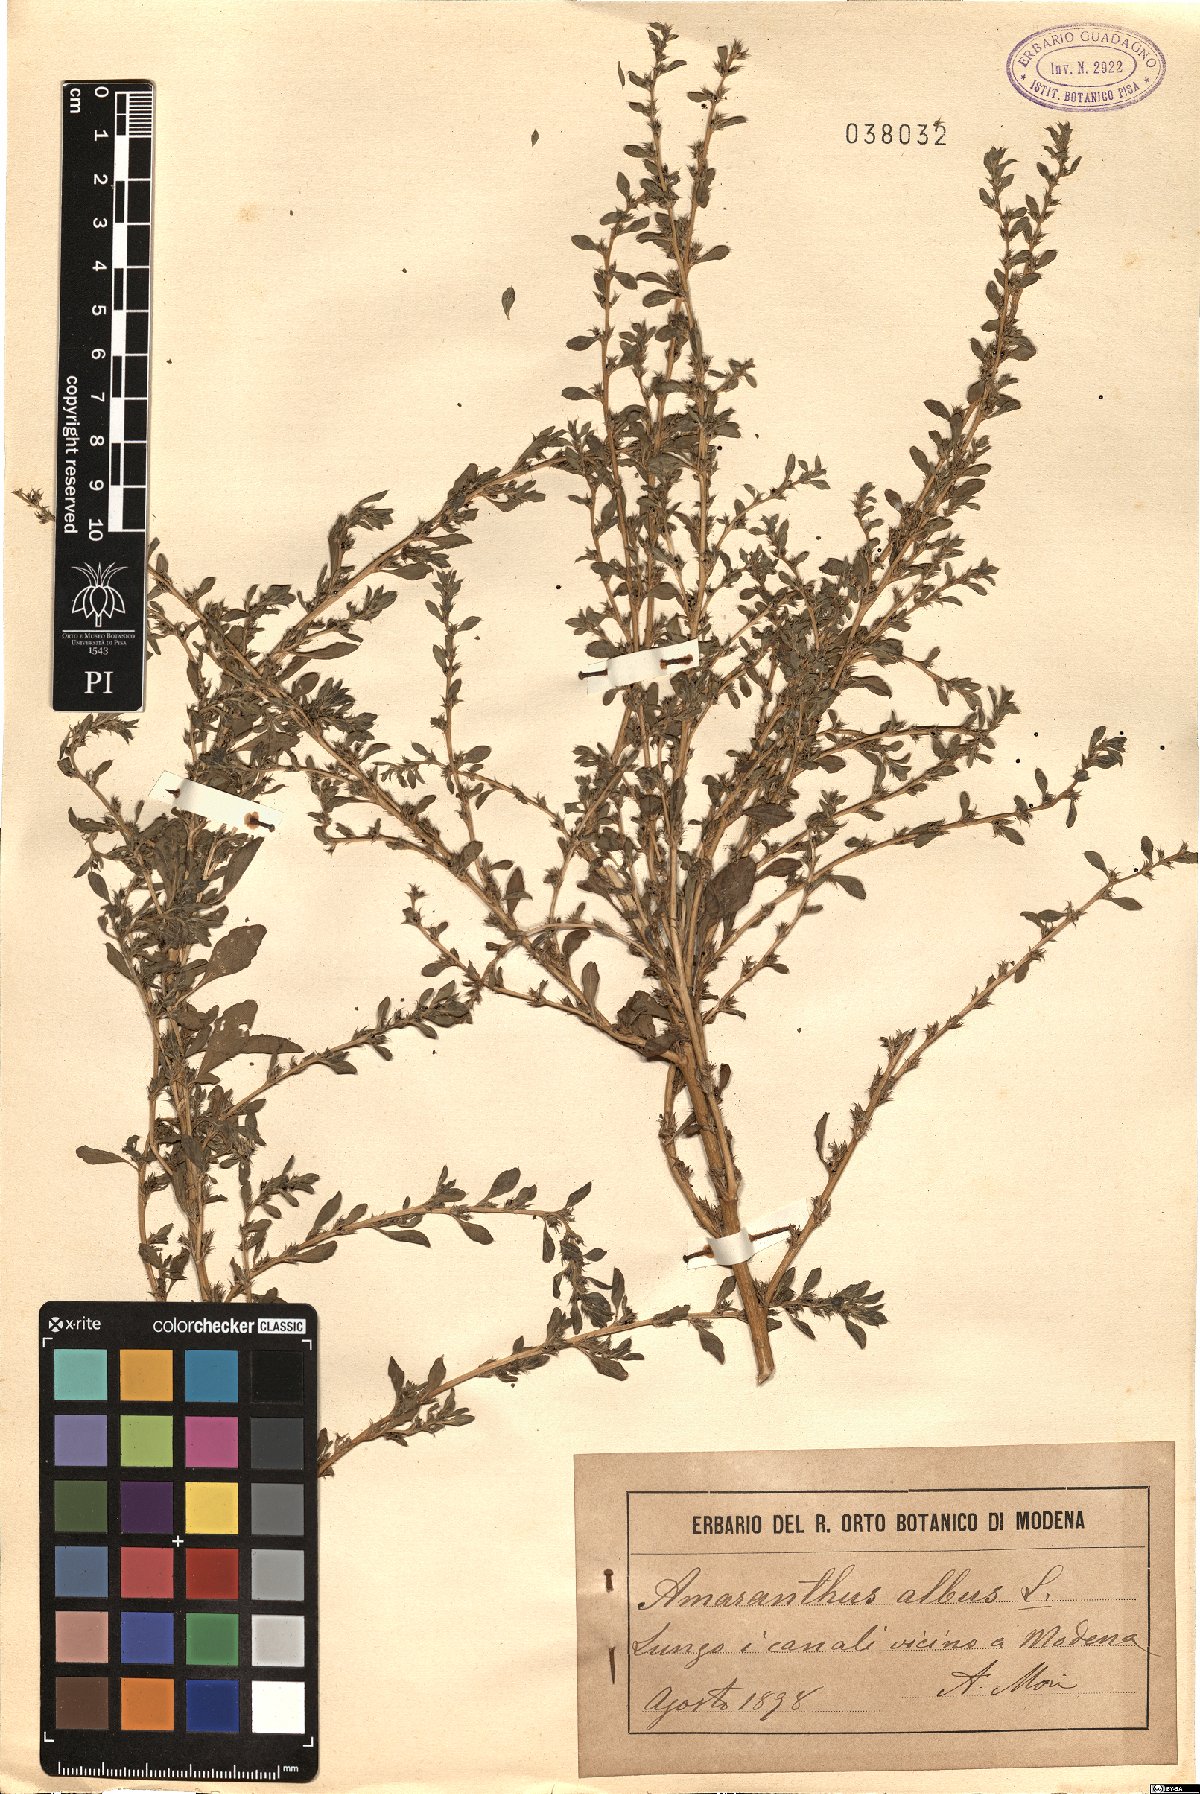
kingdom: Plantae
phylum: Tracheophyta
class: Magnoliopsida
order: Caryophyllales
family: Amaranthaceae
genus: Amaranthus
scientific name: Amaranthus albus
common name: White pigweed
